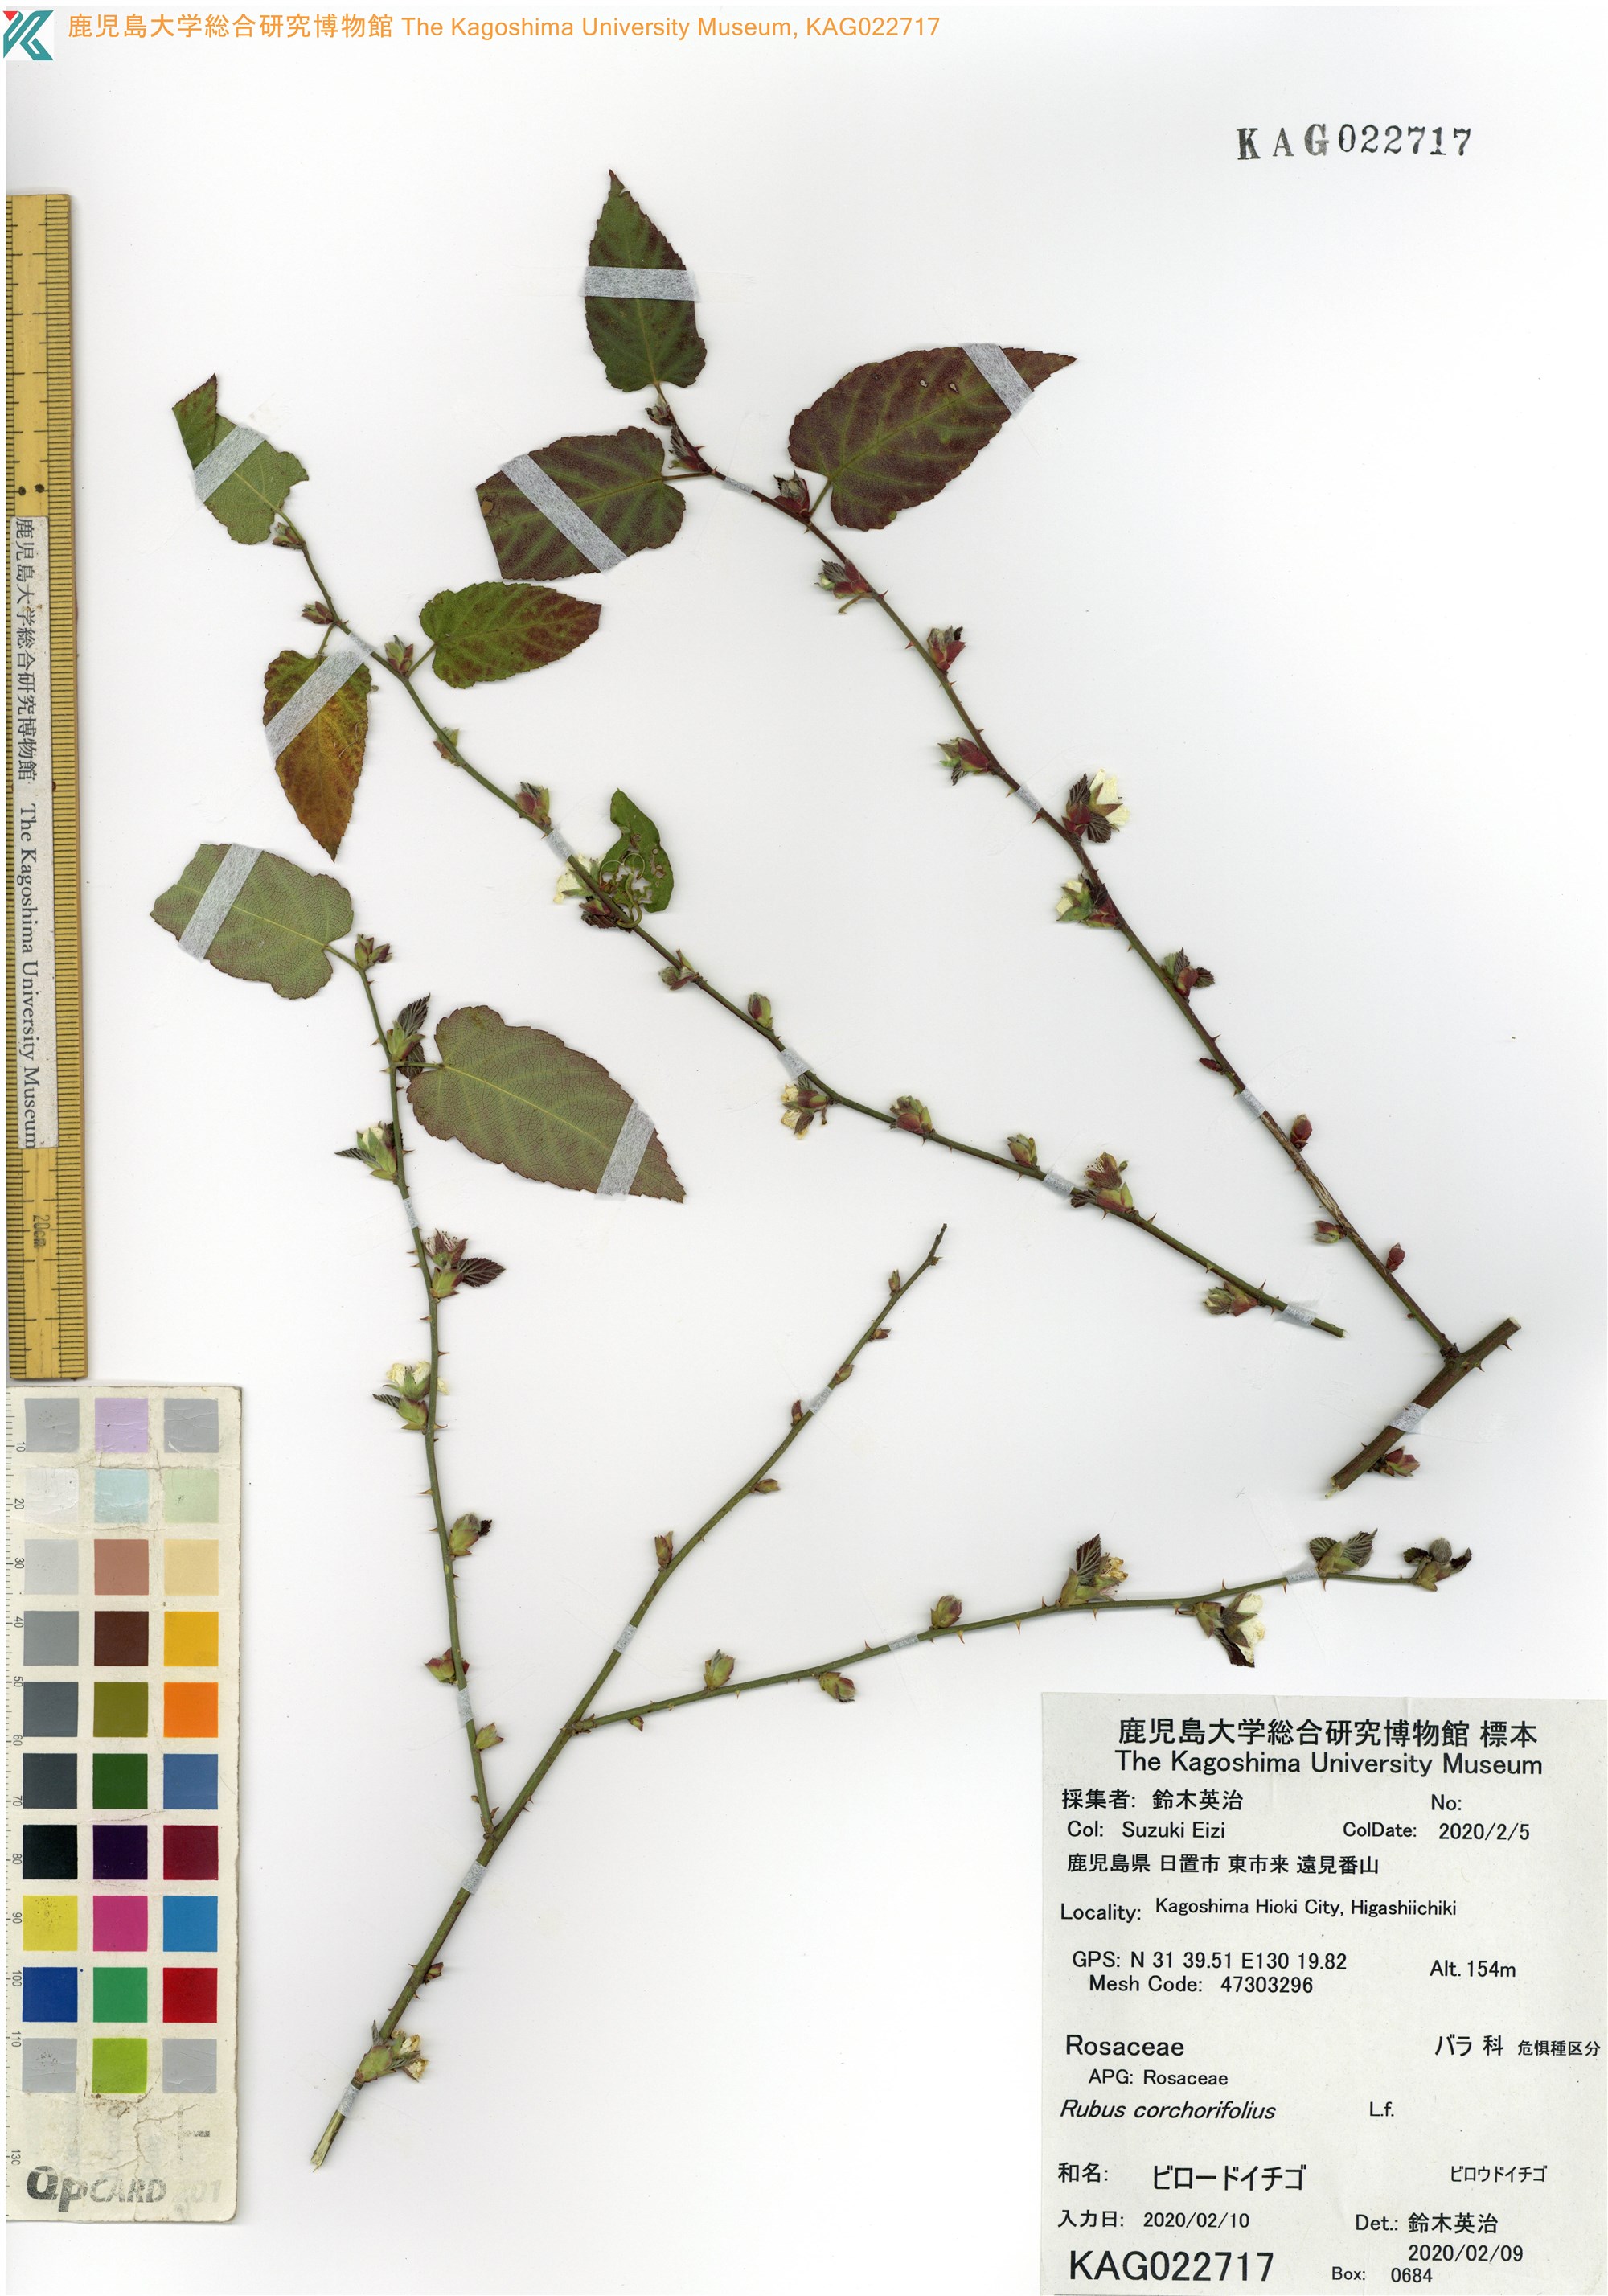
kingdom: Plantae
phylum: Tracheophyta
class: Magnoliopsida
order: Rosales
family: Rosaceae
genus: Rubus
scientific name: Rubus corchorifolius
